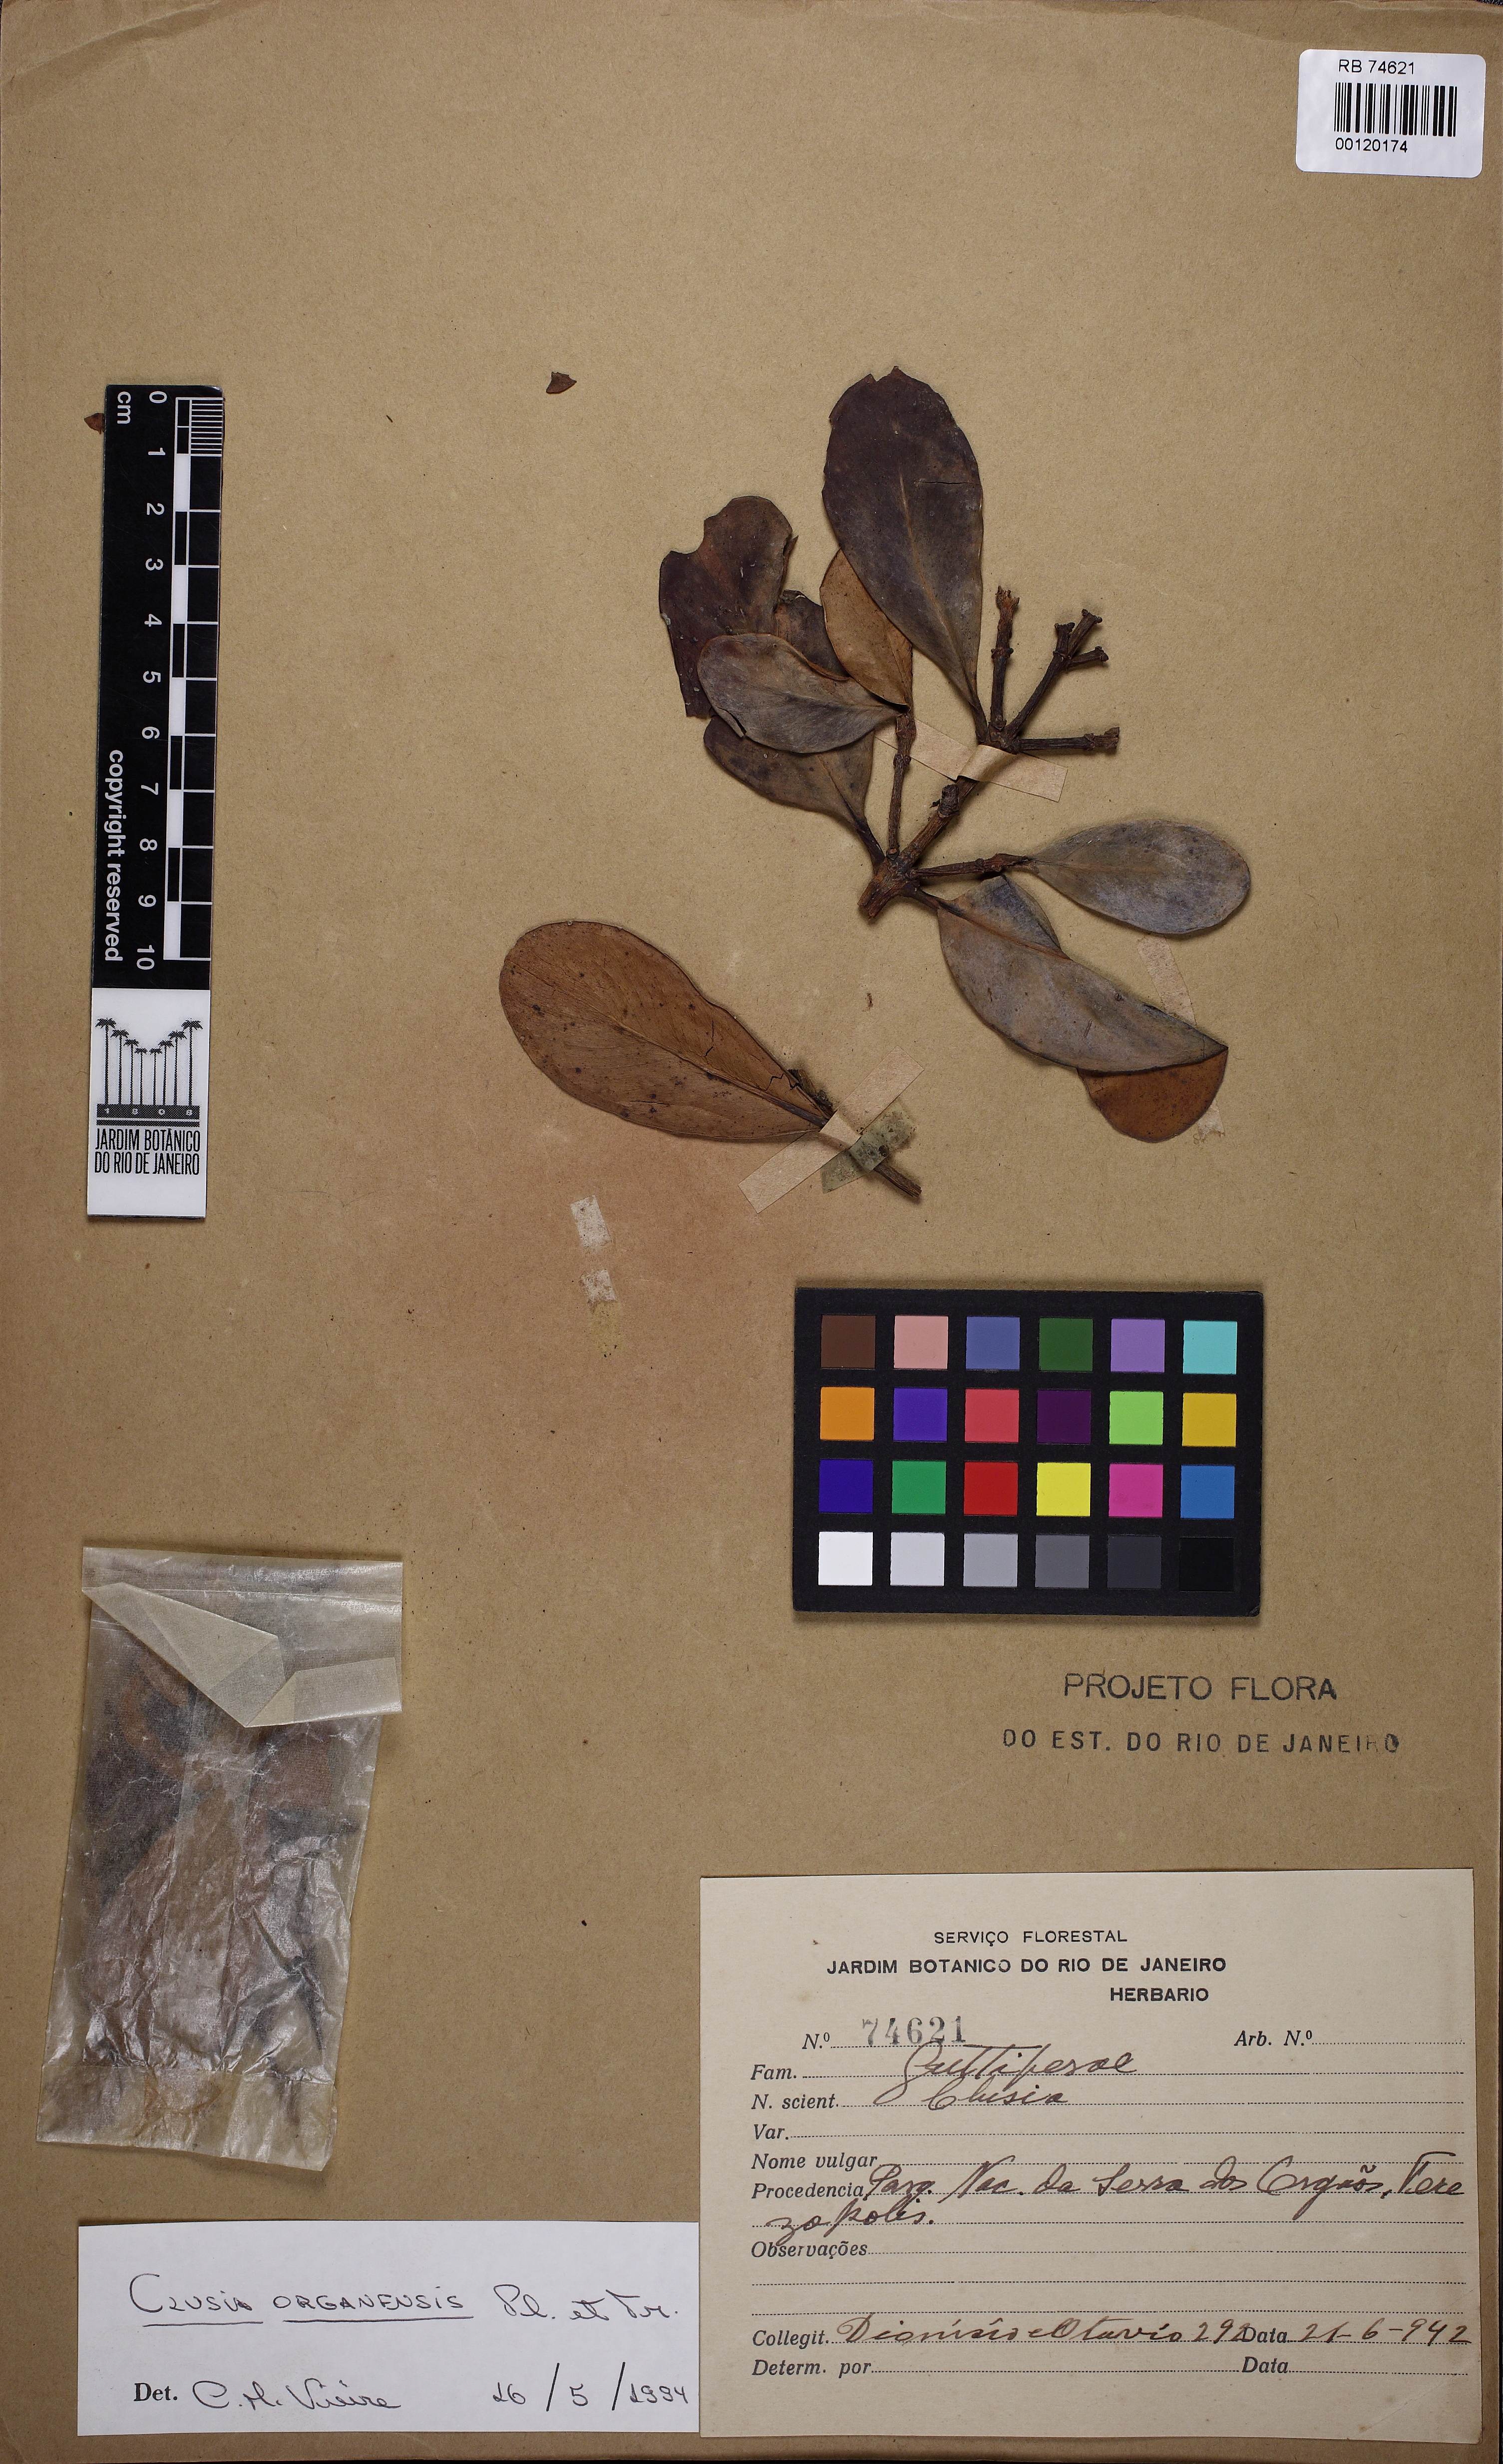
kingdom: Plantae
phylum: Tracheophyta
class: Magnoliopsida
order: Malpighiales
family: Clusiaceae
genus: Clusia
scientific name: Clusia organensis
